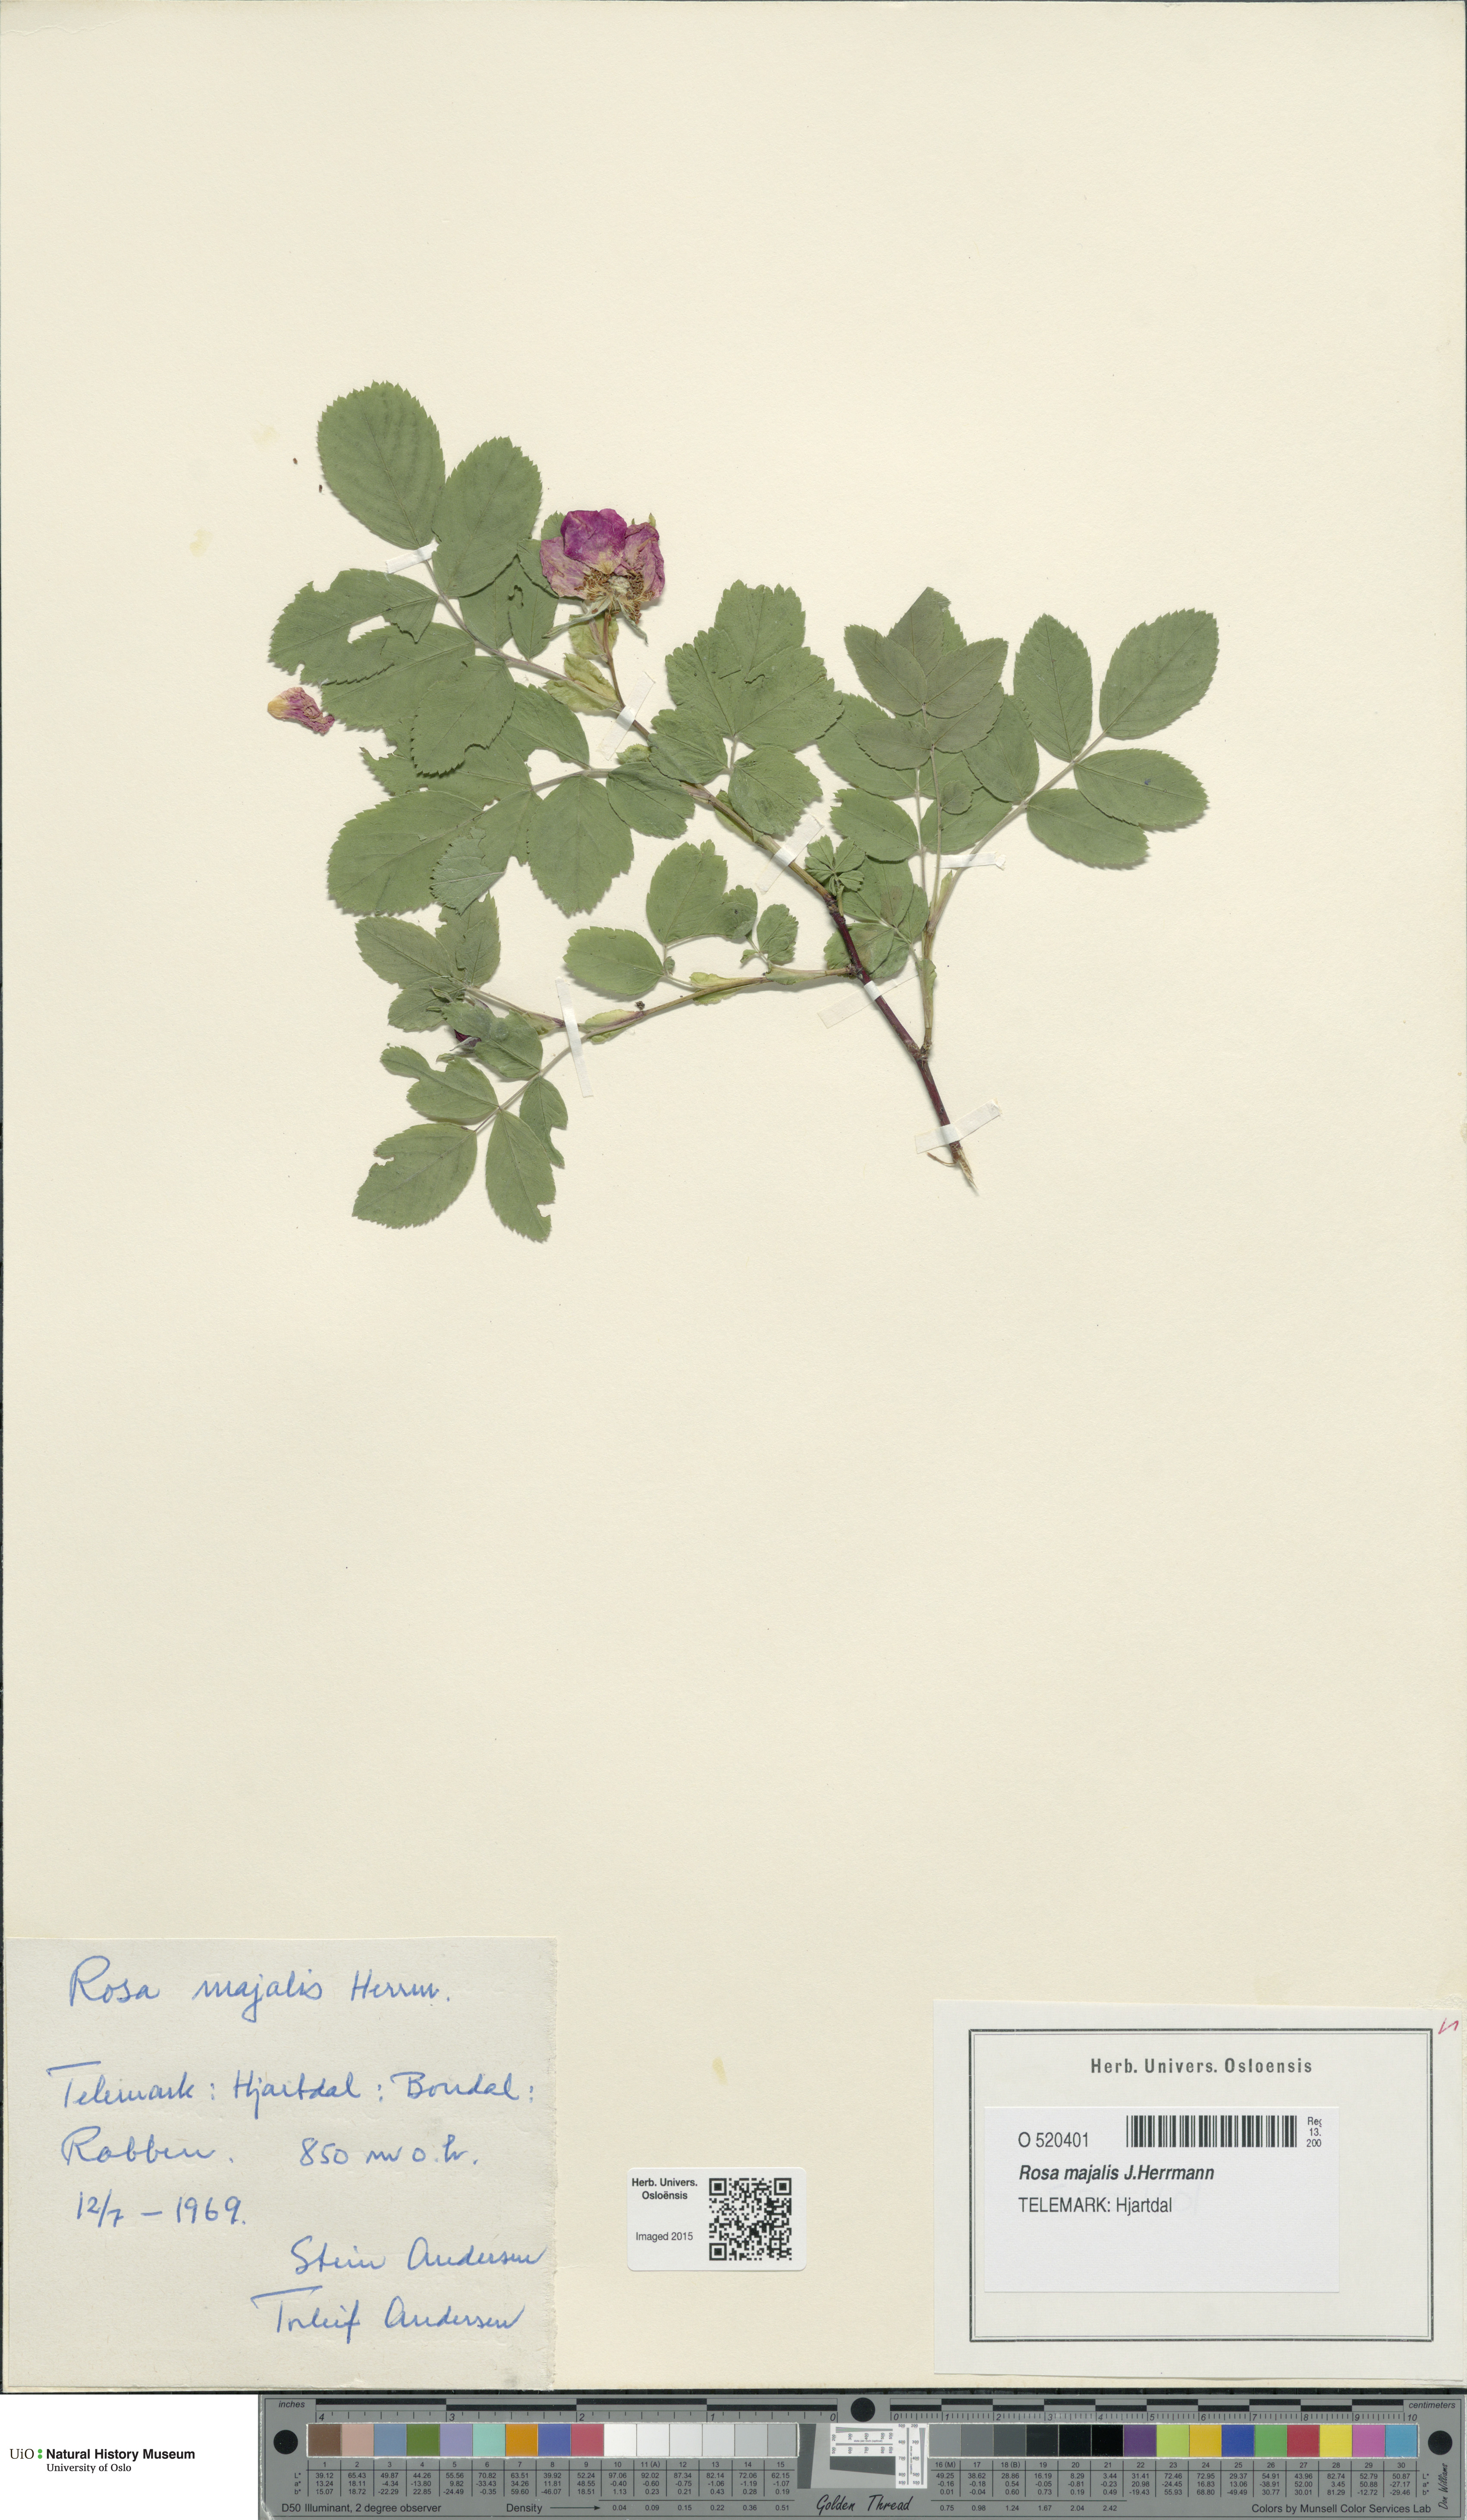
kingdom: Plantae
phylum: Tracheophyta
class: Magnoliopsida
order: Rosales
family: Rosaceae
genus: Rosa
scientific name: Rosa majalis
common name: Cinnamon rose
